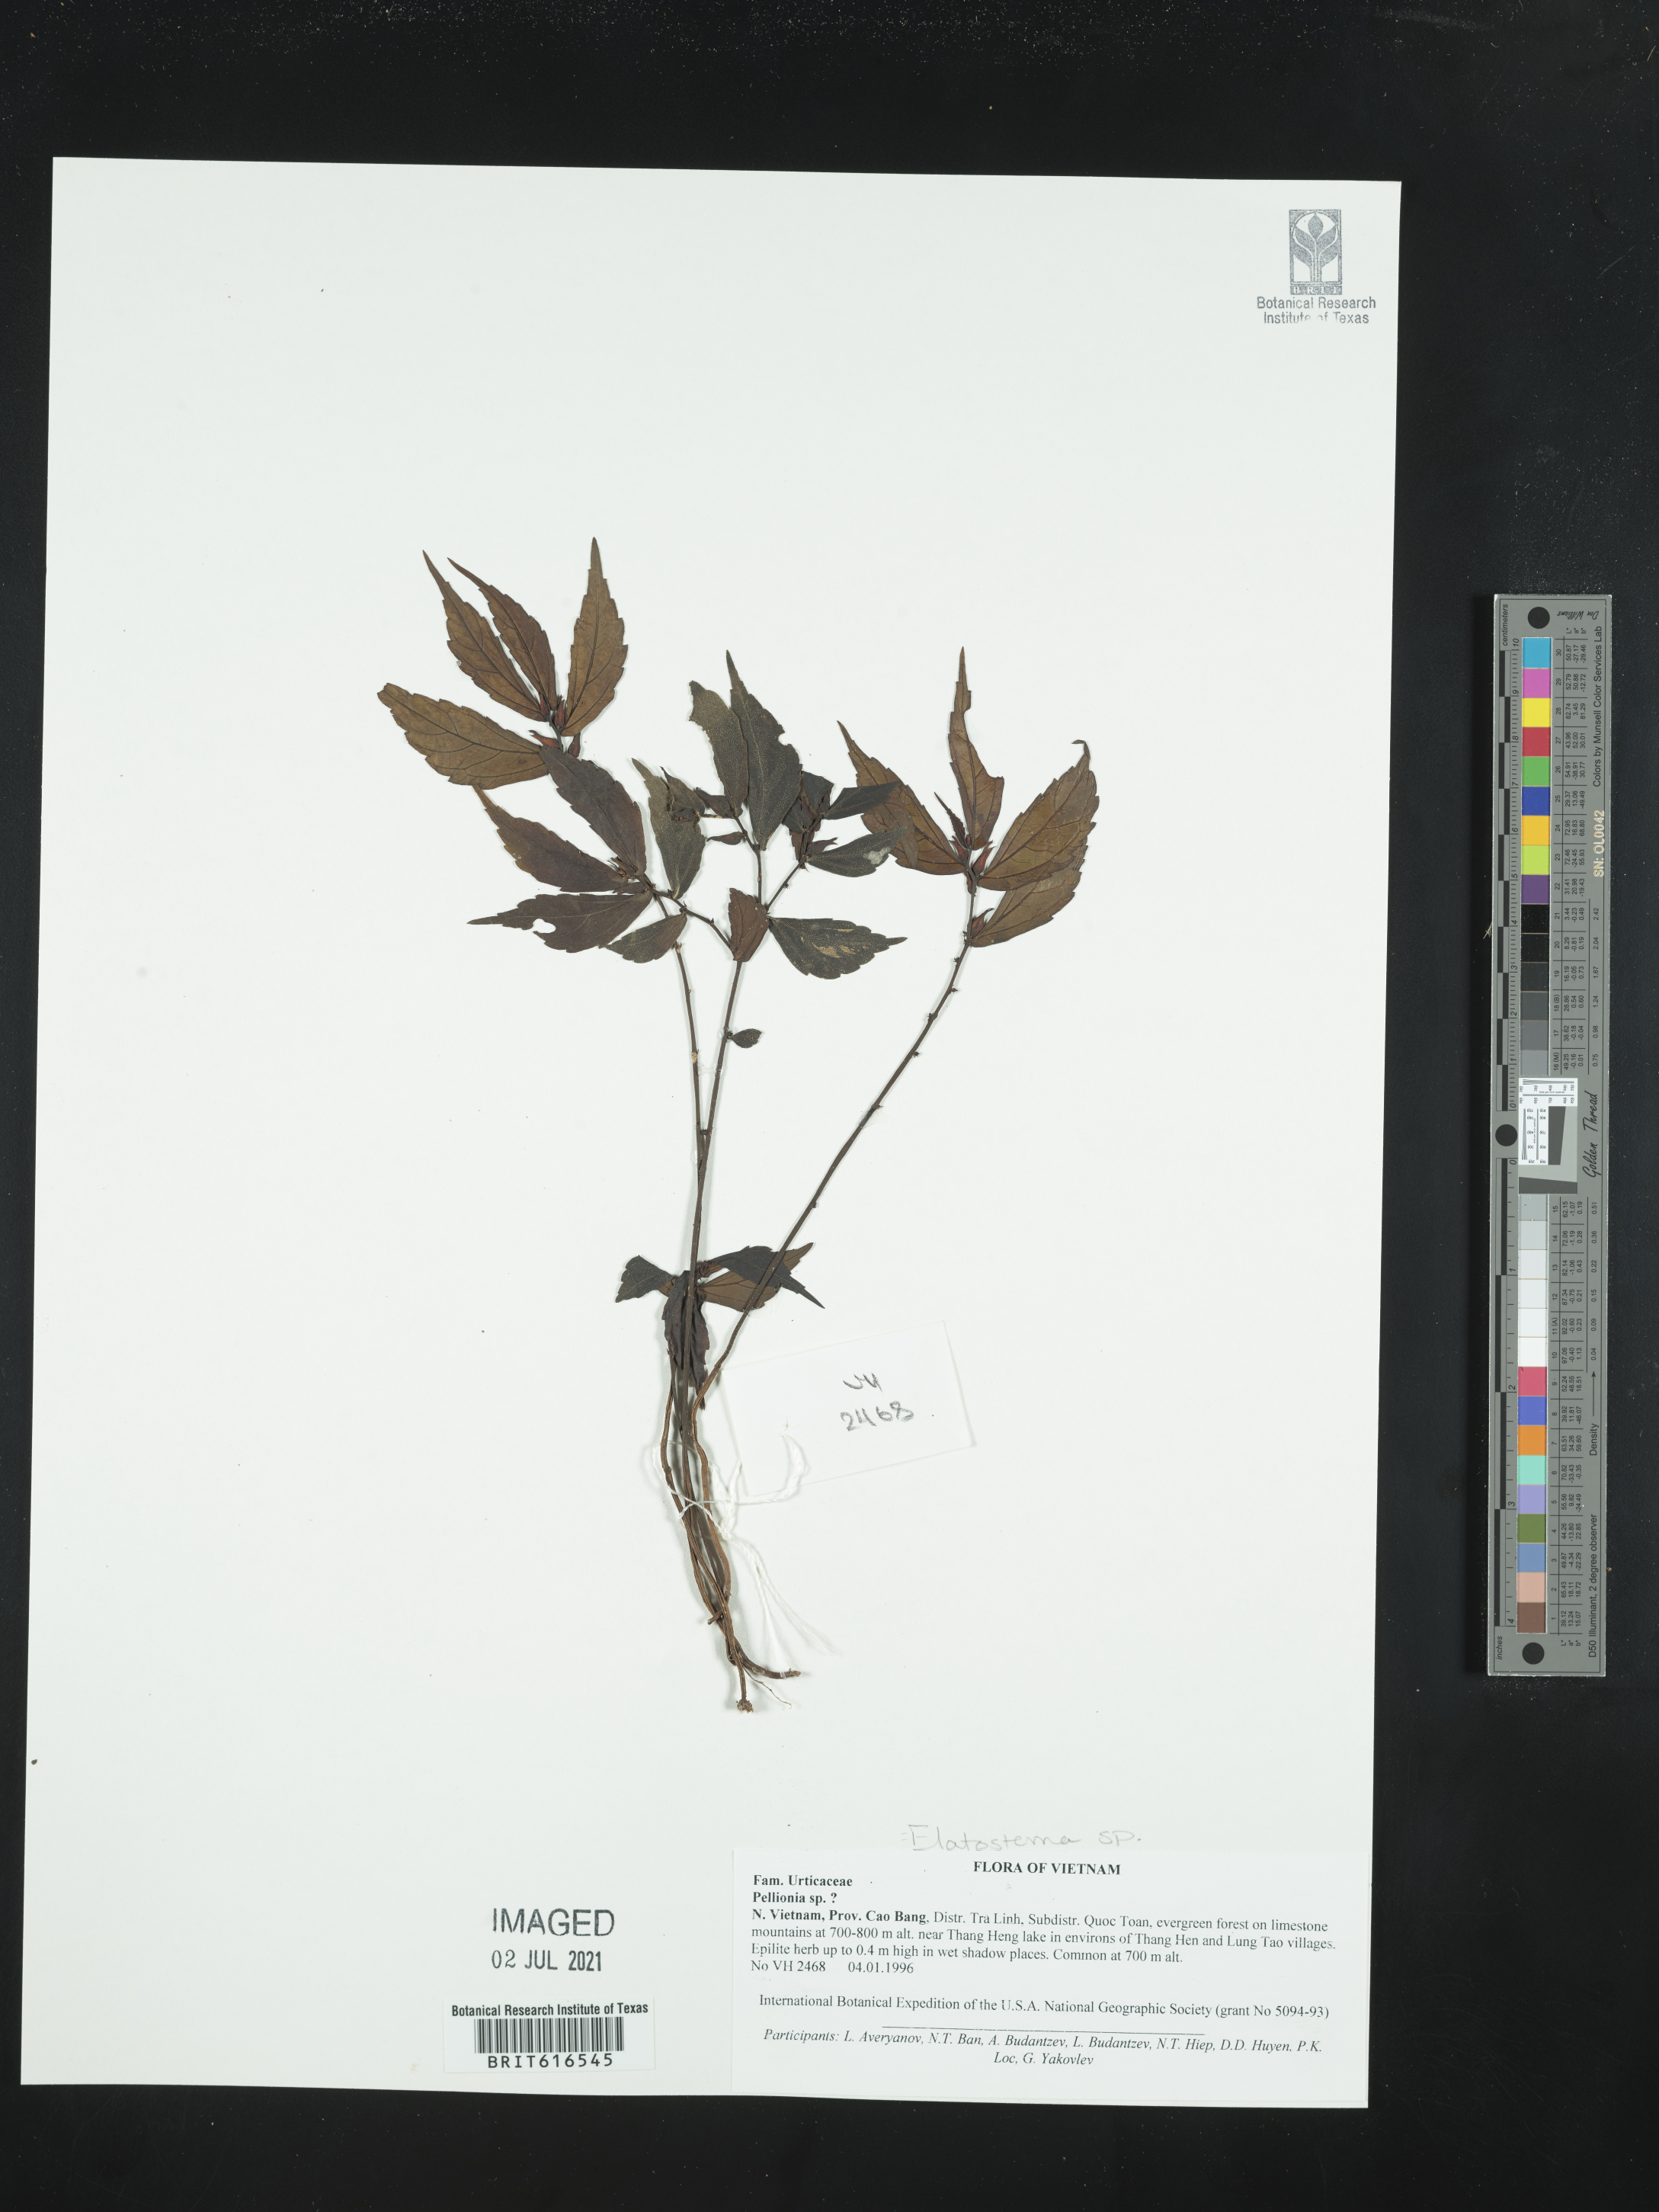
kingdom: Plantae
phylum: Tracheophyta
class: Magnoliopsida
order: Rosales
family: Urticaceae
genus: Pellionia
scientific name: Pellionia
